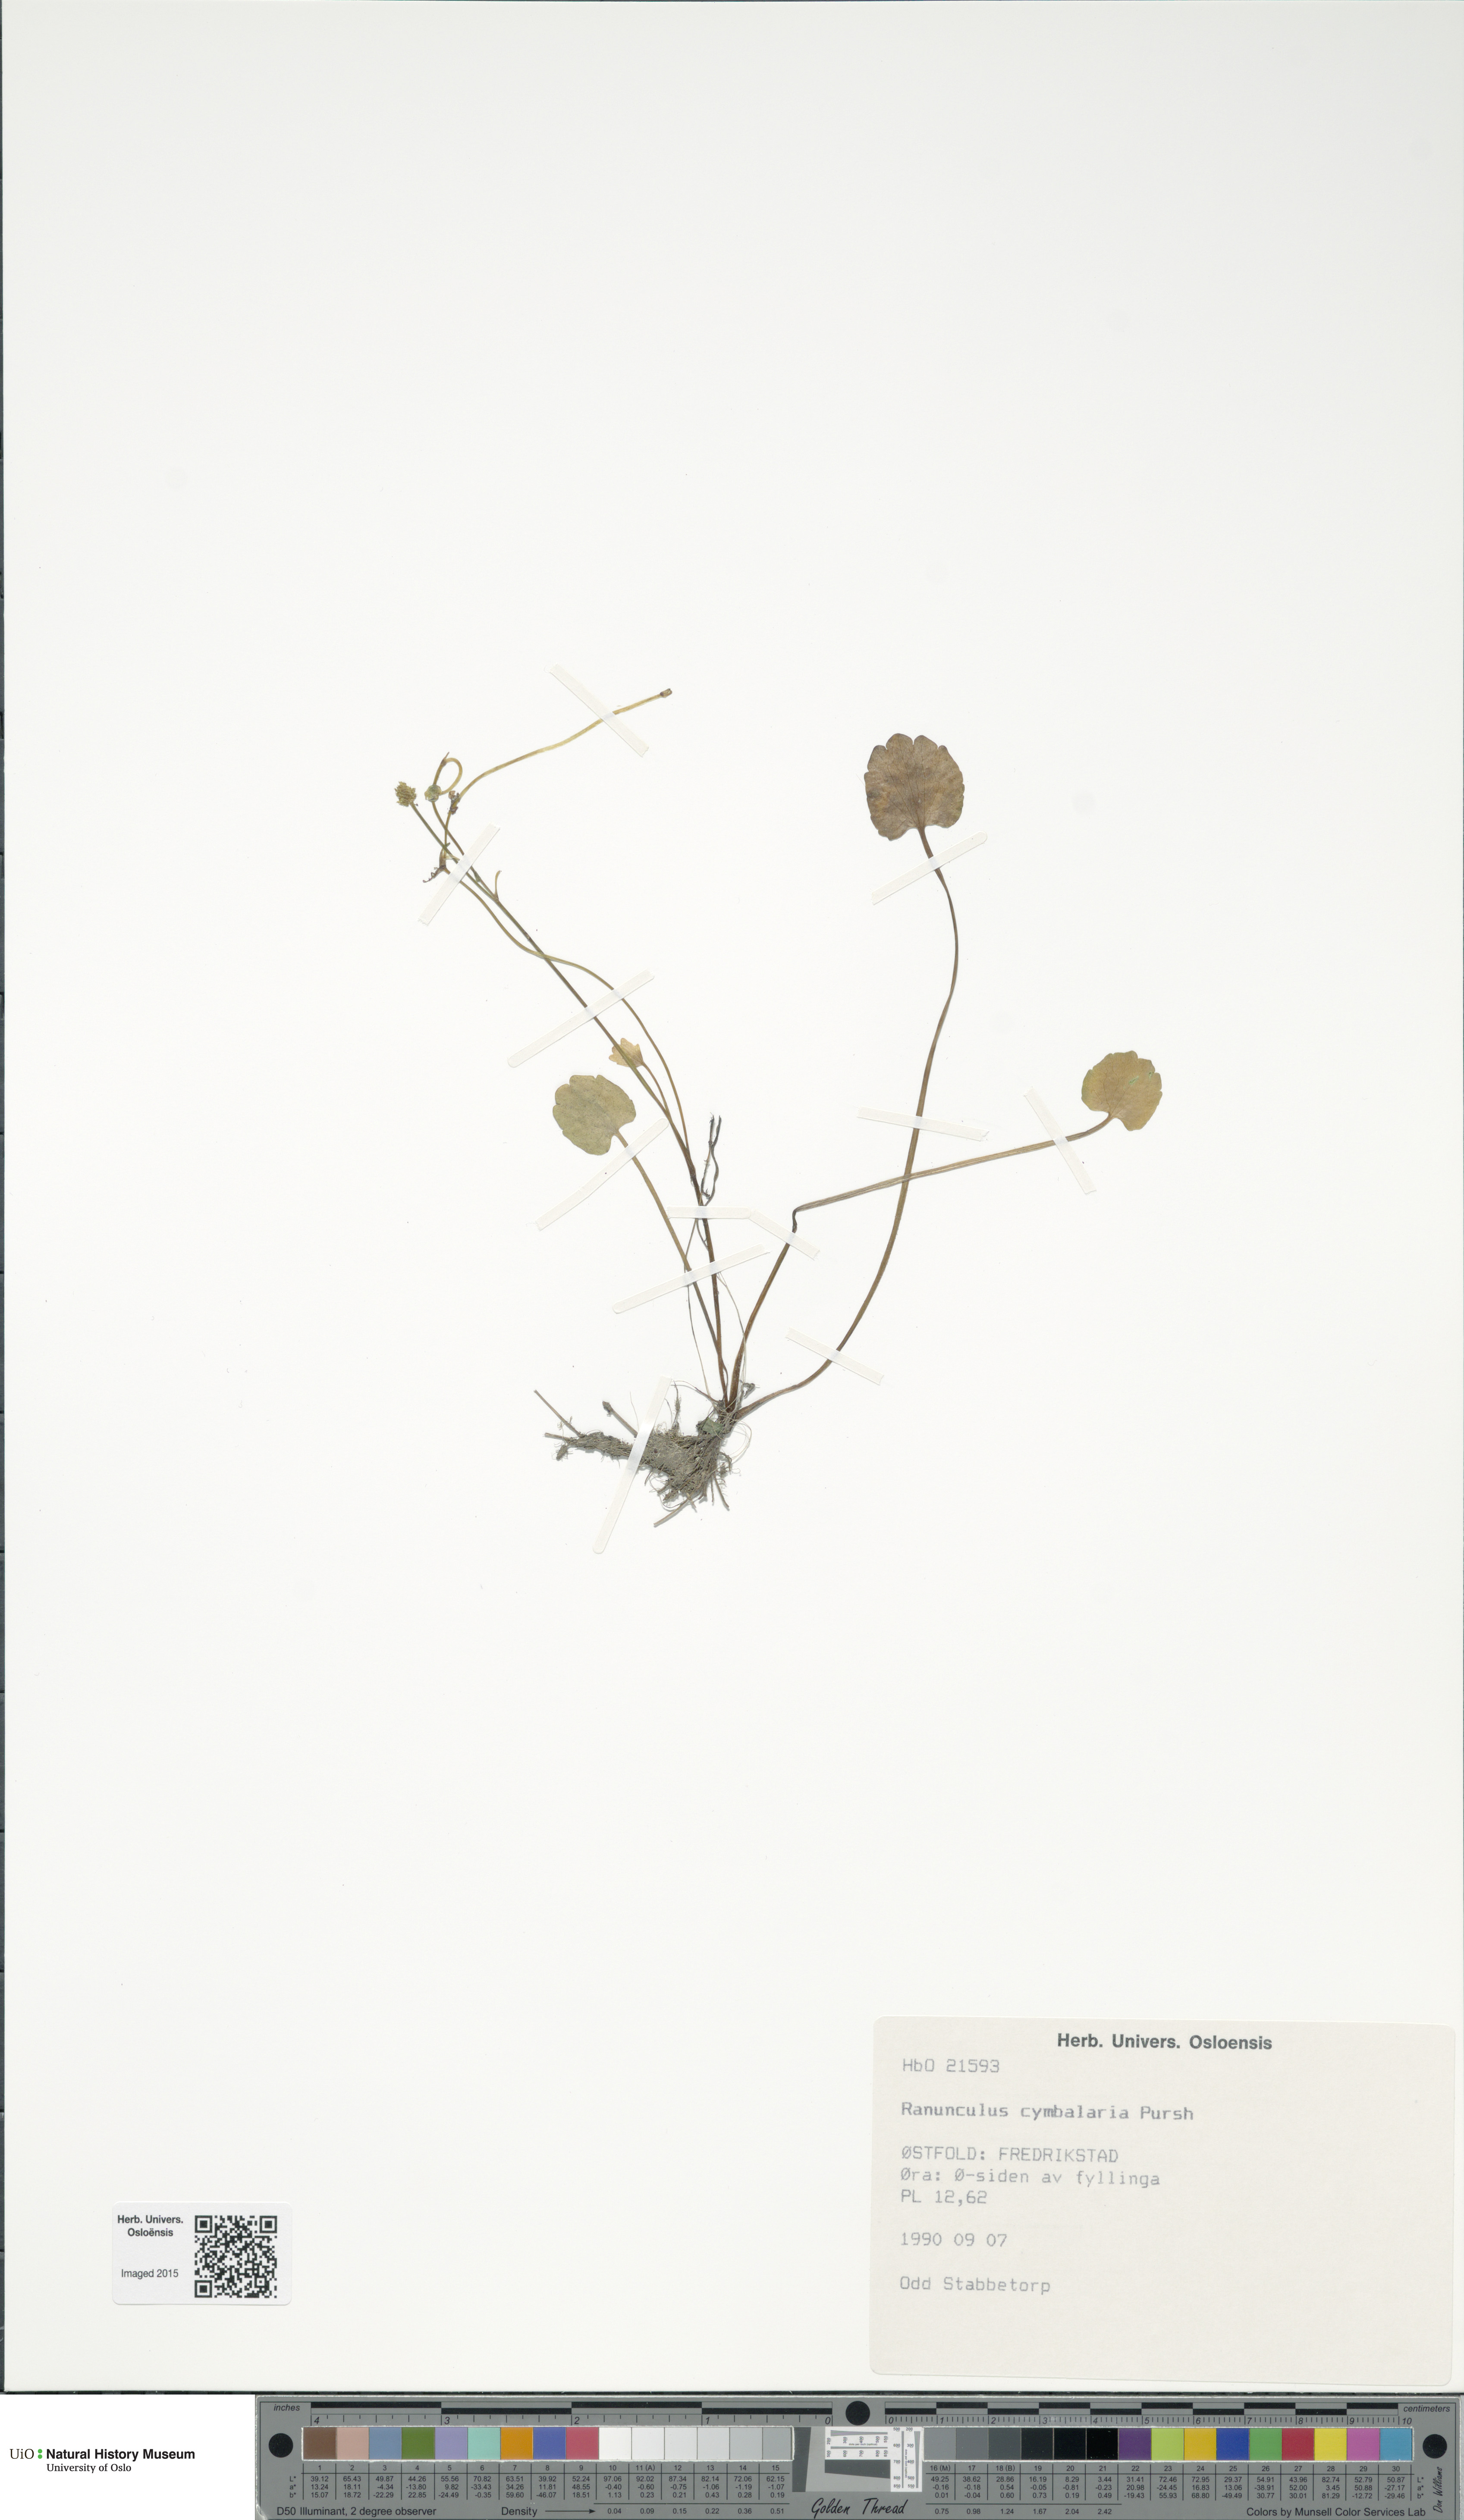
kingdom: Plantae
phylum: Tracheophyta
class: Magnoliopsida
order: Ranunculales
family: Ranunculaceae
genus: Halerpestes
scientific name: Halerpestes cymbalaria
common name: Seaside crowfoot
